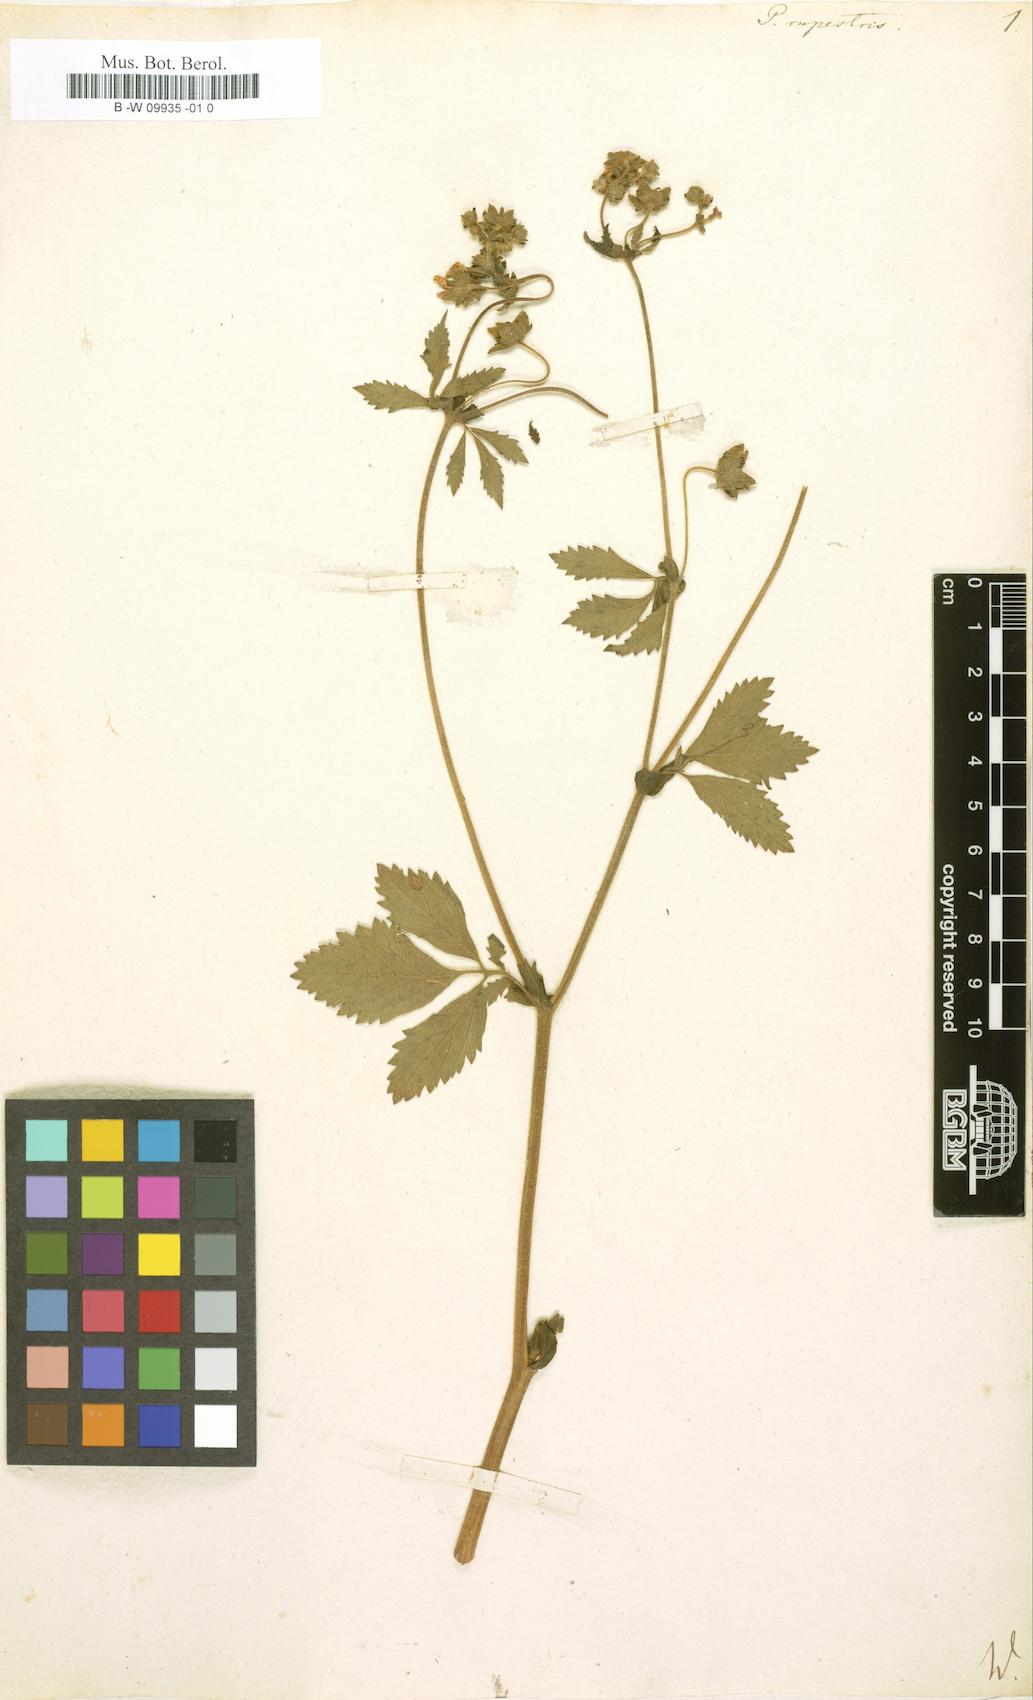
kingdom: Plantae
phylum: Tracheophyta
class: Magnoliopsida
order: Rosales
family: Rosaceae
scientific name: Rosaceae
